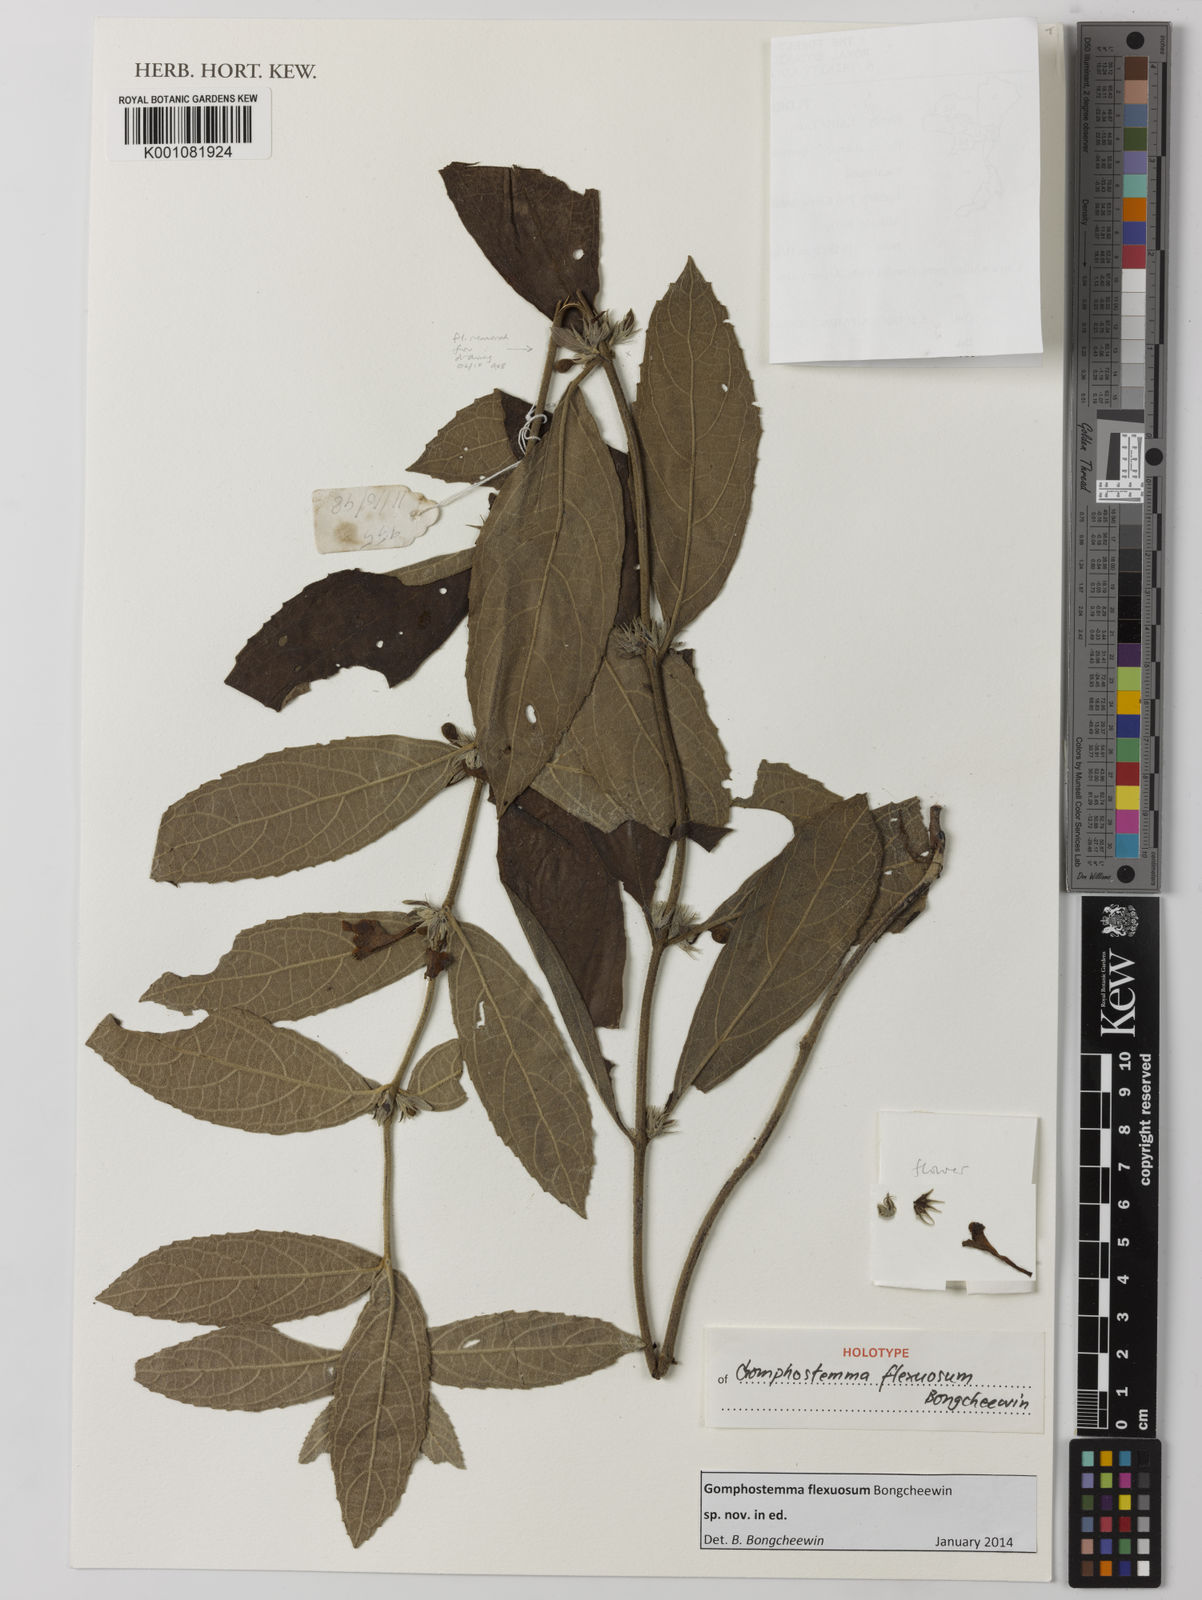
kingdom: Plantae
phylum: Tracheophyta
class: Magnoliopsida
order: Lamiales
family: Lamiaceae
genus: Gomphostemma
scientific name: Gomphostemma
